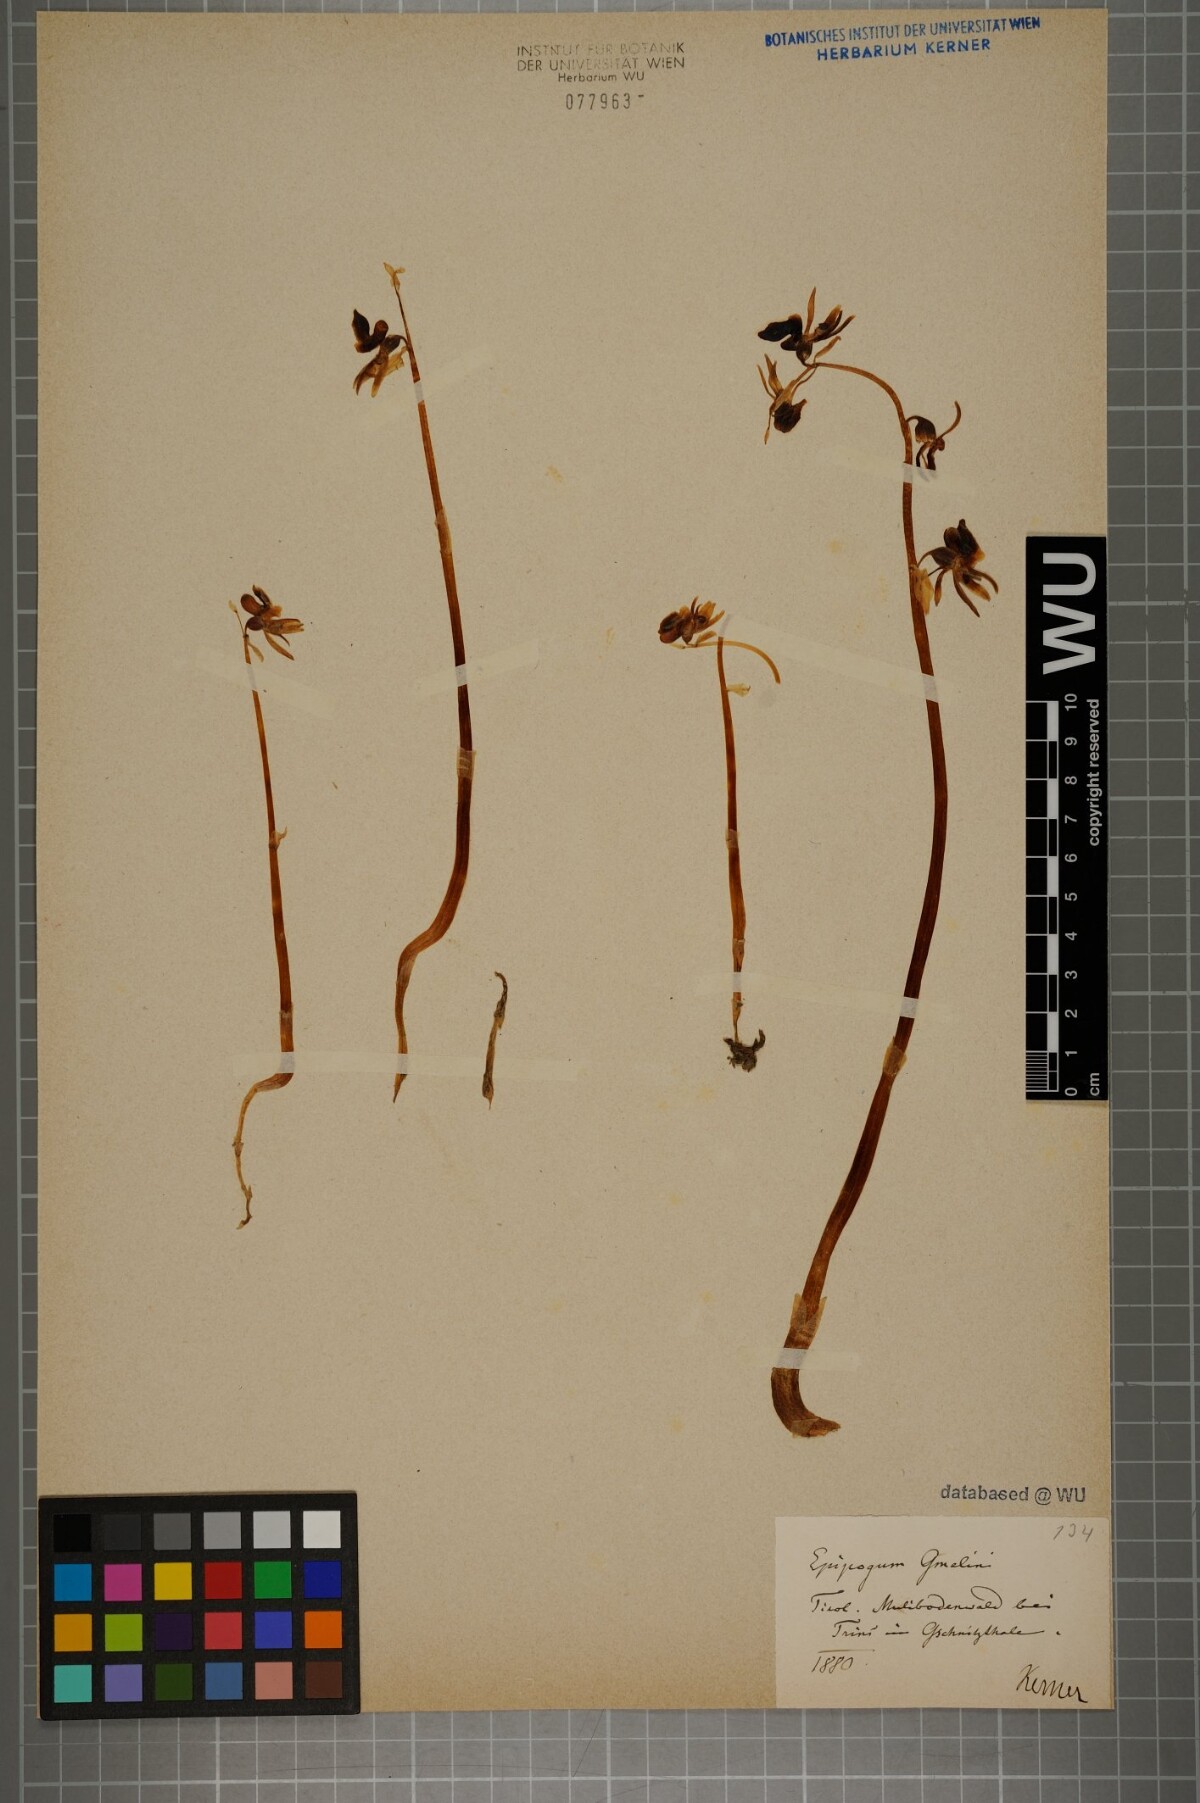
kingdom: Plantae
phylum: Tracheophyta
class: Liliopsida
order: Asparagales
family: Orchidaceae
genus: Epipogium
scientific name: Epipogium aphyllum
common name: Ghost orchid
